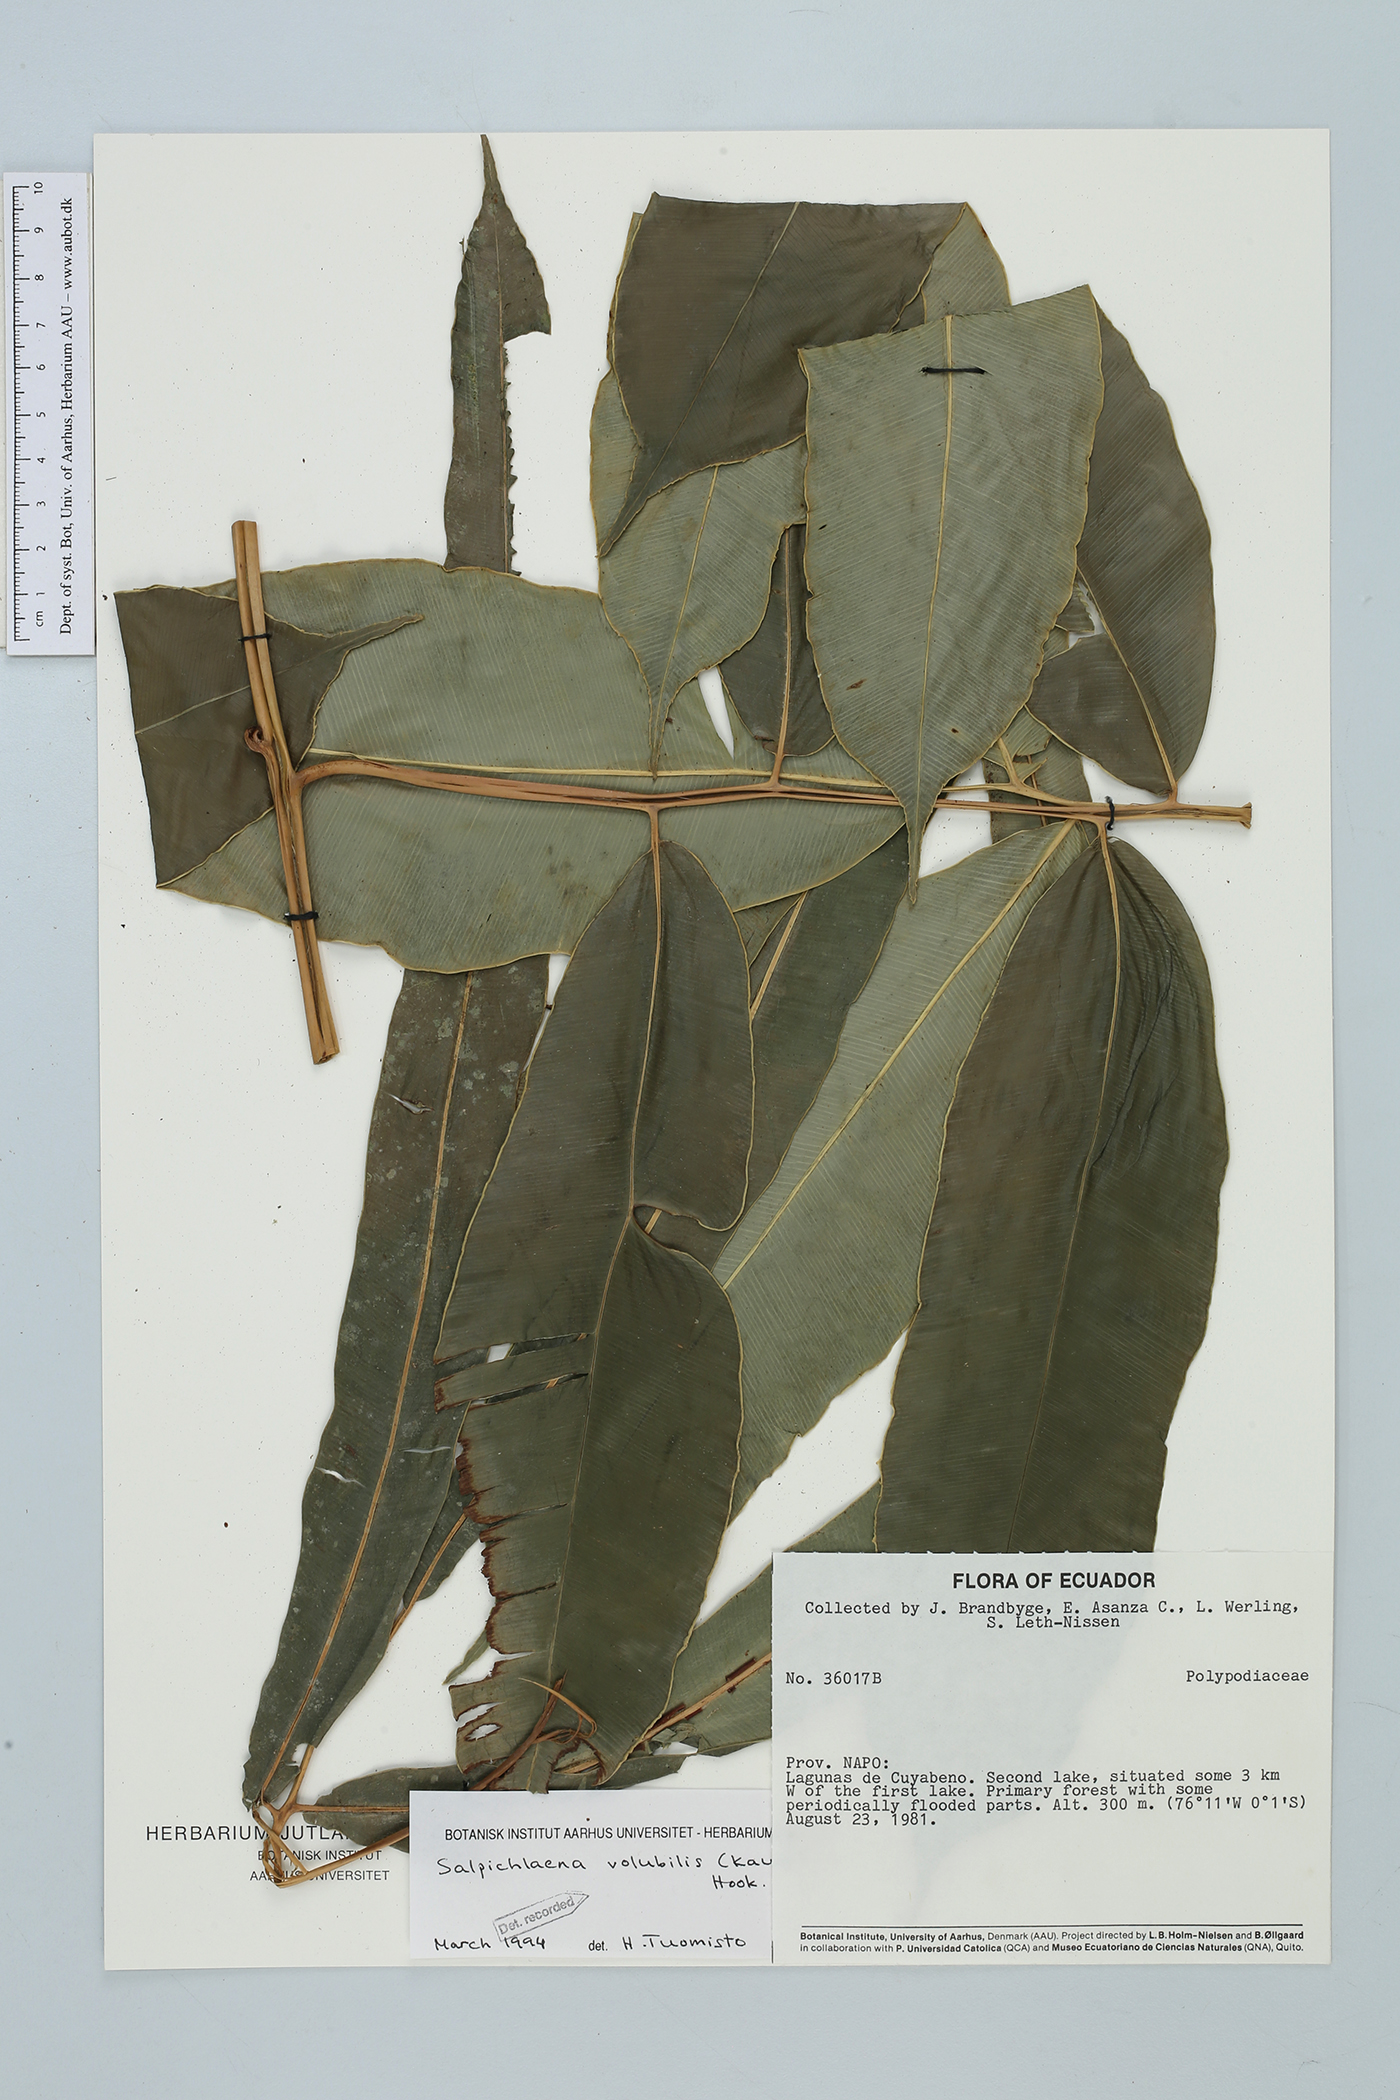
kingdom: Plantae
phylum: Tracheophyta
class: Polypodiopsida
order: Polypodiales
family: Blechnaceae
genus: Salpichlaena
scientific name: Salpichlaena volubilis
